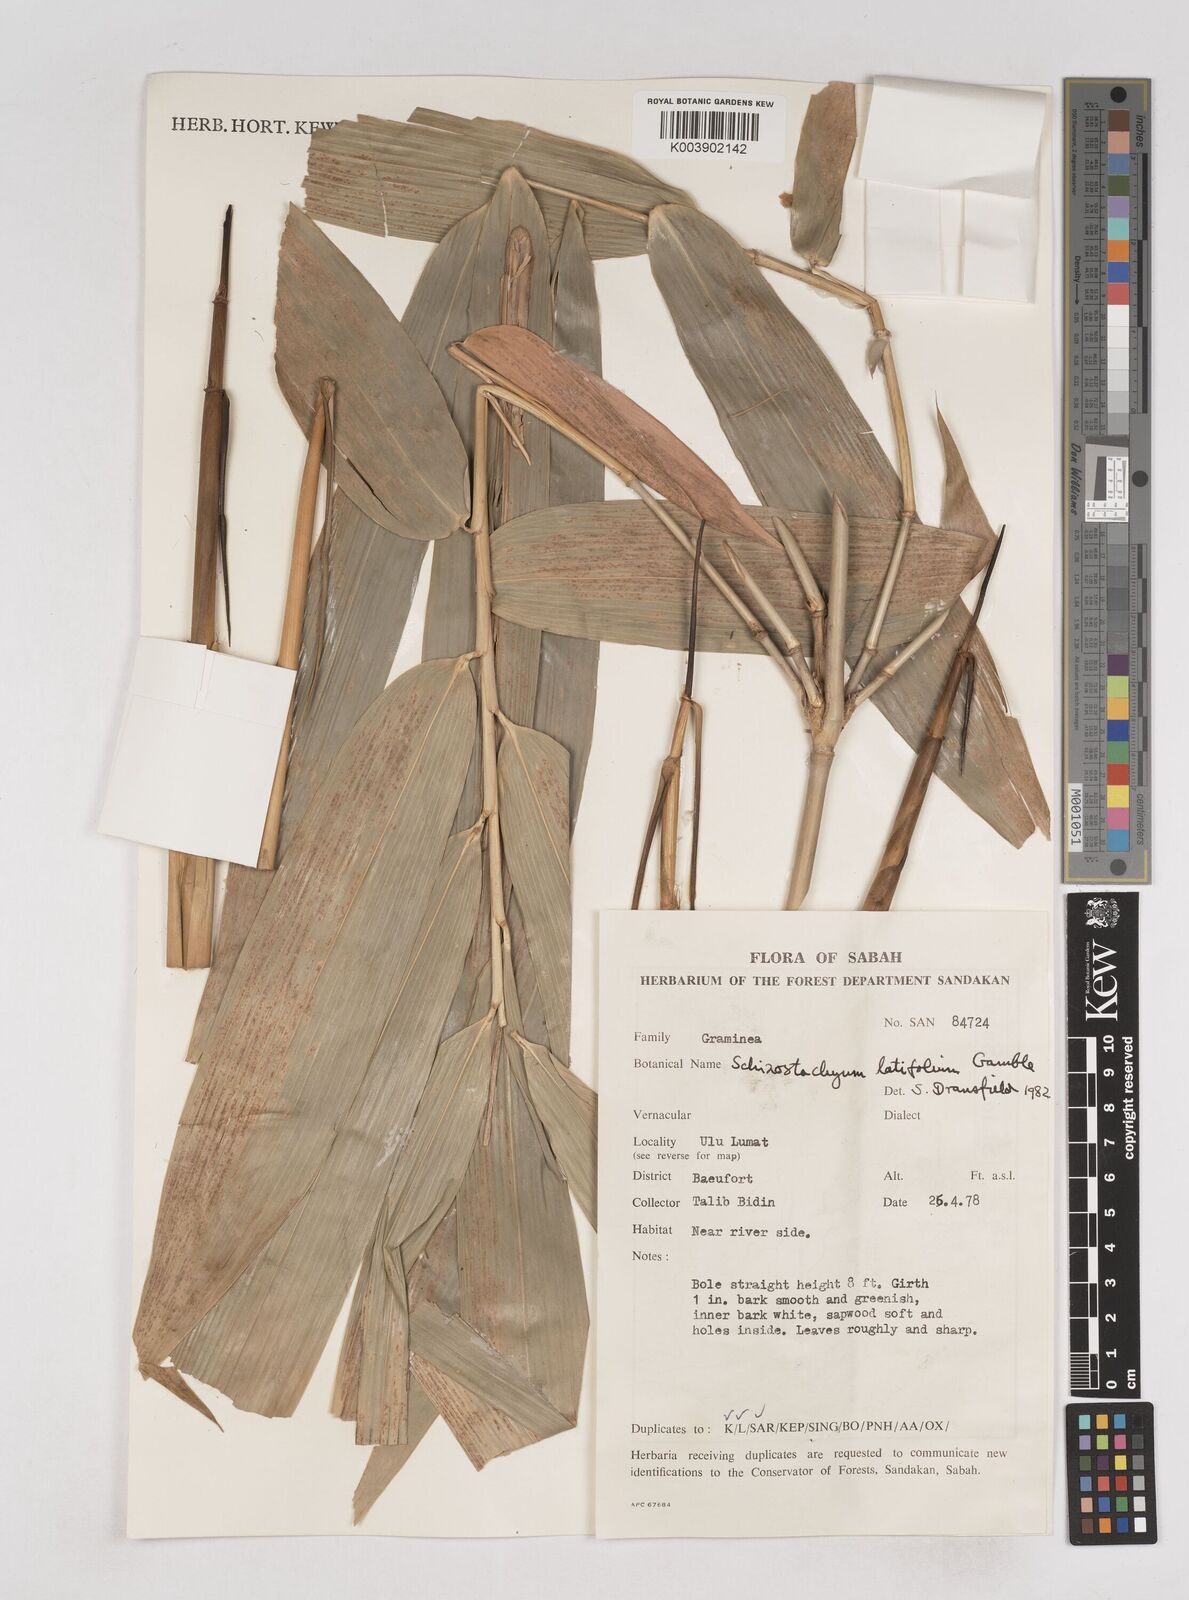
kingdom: Plantae
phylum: Tracheophyta
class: Liliopsida
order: Poales
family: Poaceae
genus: Schizostachyum
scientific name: Schizostachyum
